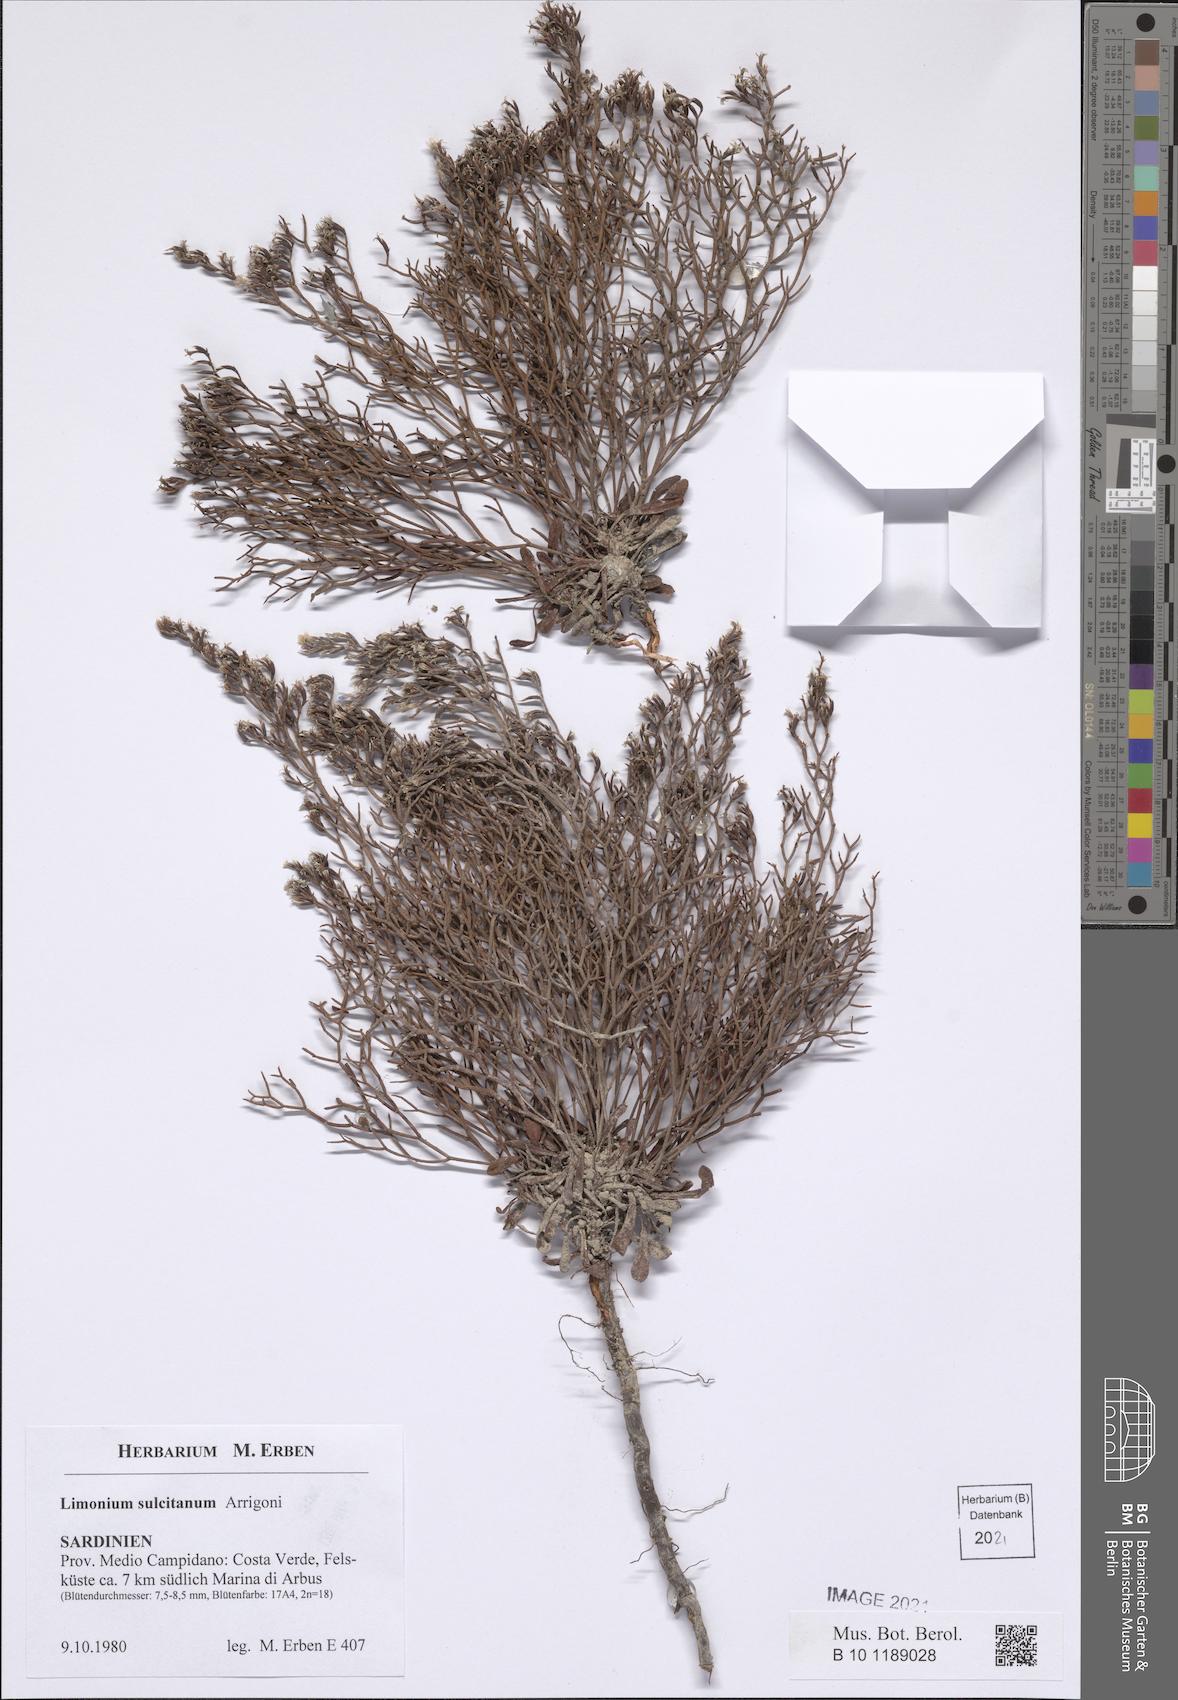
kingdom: Plantae
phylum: Tracheophyta
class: Magnoliopsida
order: Caryophyllales
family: Plumbaginaceae
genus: Limonium
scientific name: Limonium sulcitanum
